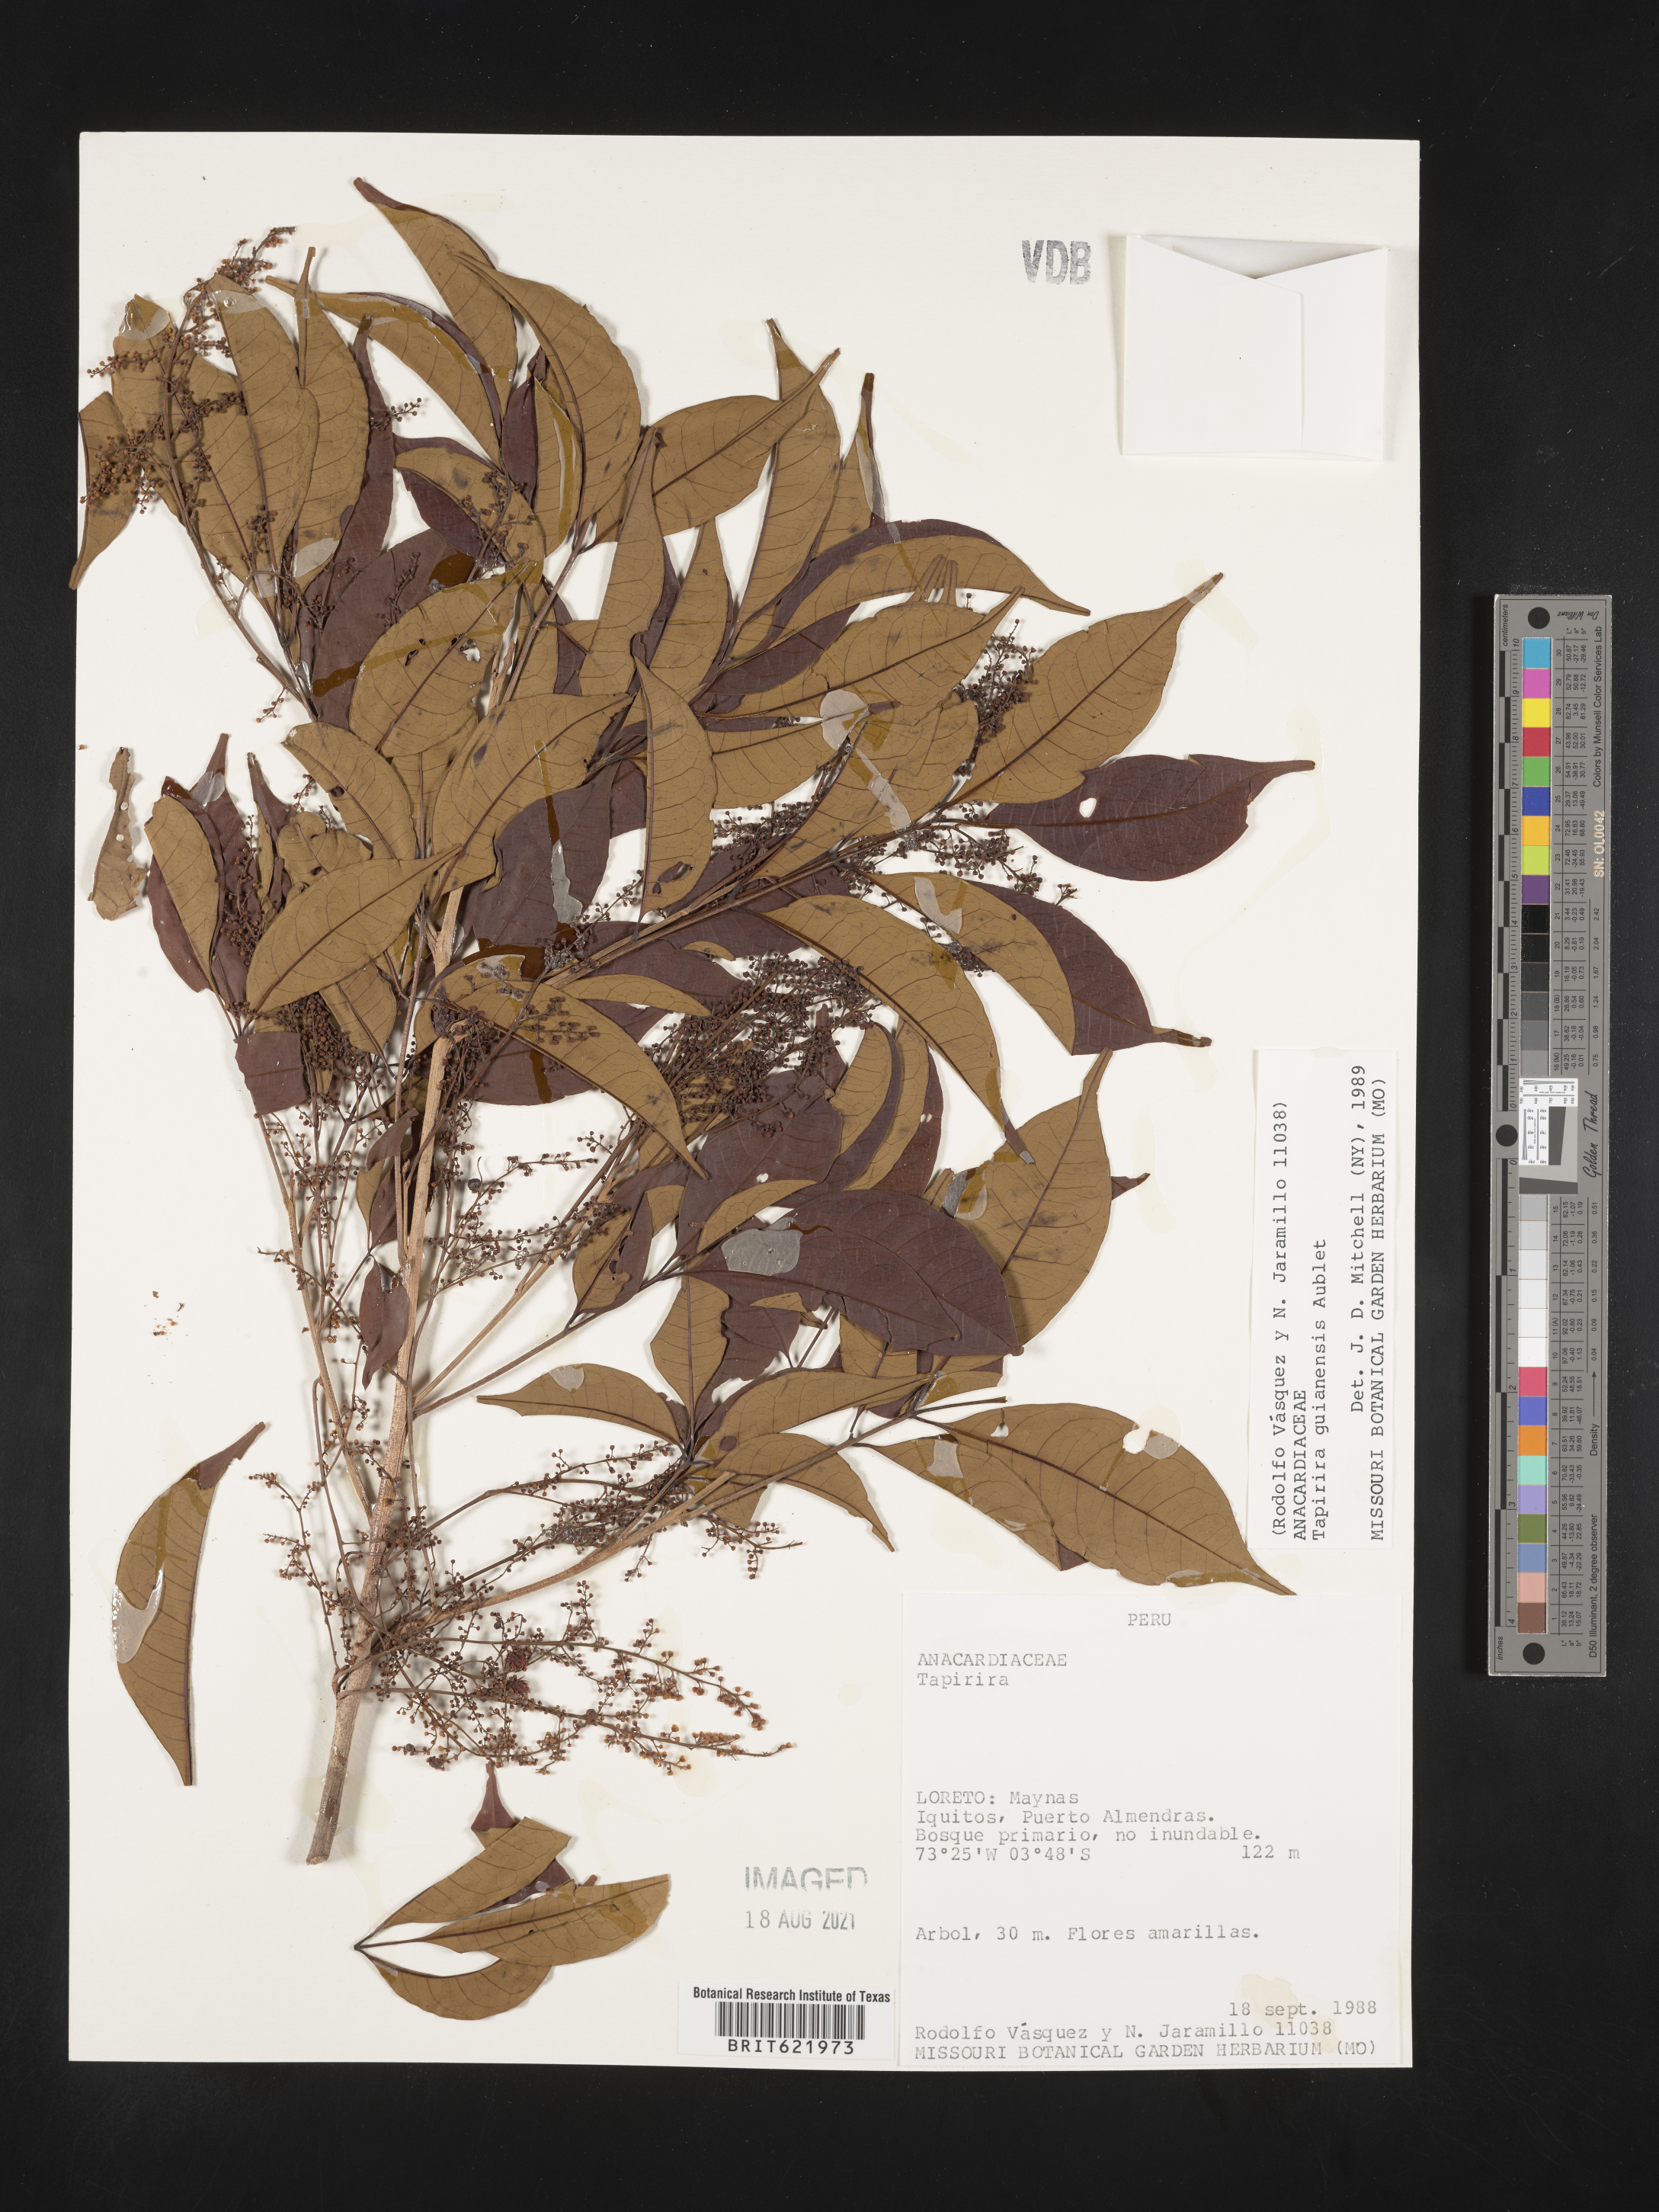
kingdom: Plantae
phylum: Tracheophyta
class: Magnoliopsida
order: Sapindales
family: Anacardiaceae
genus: Tapirira
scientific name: Tapirira guianensis
